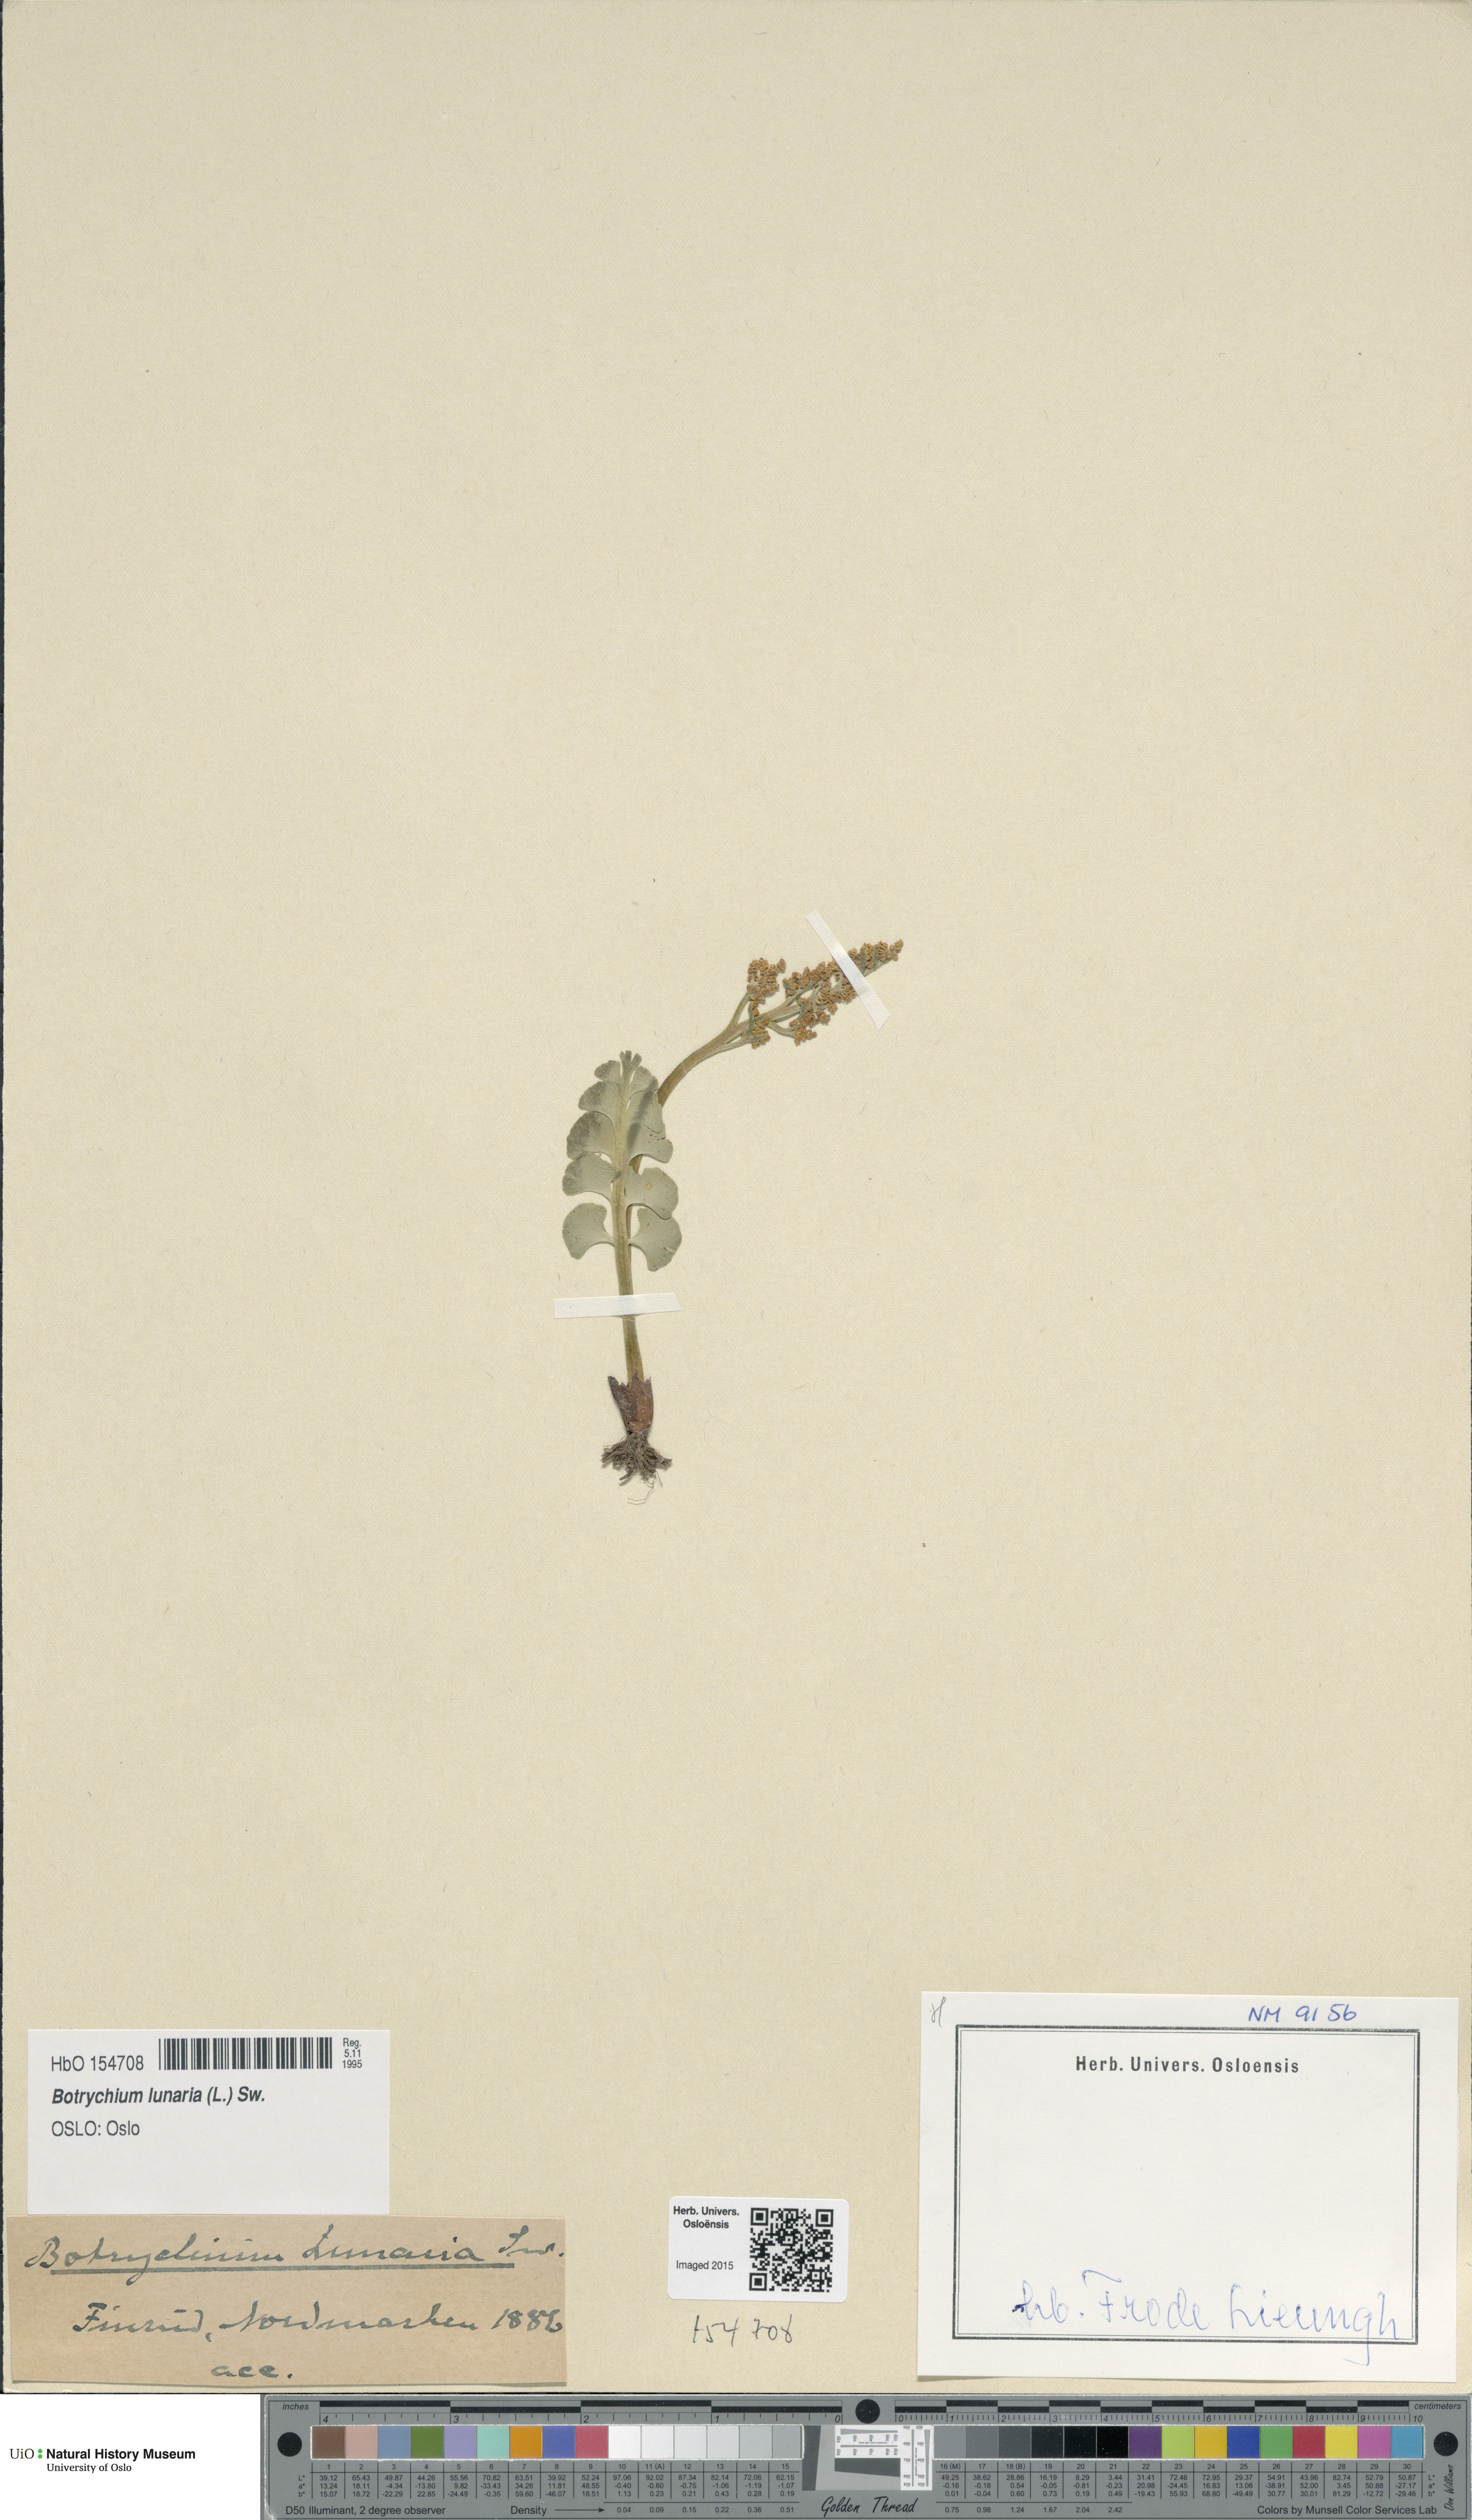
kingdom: Plantae
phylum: Tracheophyta
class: Polypodiopsida
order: Ophioglossales
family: Ophioglossaceae
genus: Botrychium
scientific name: Botrychium lunaria
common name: Moonwort
